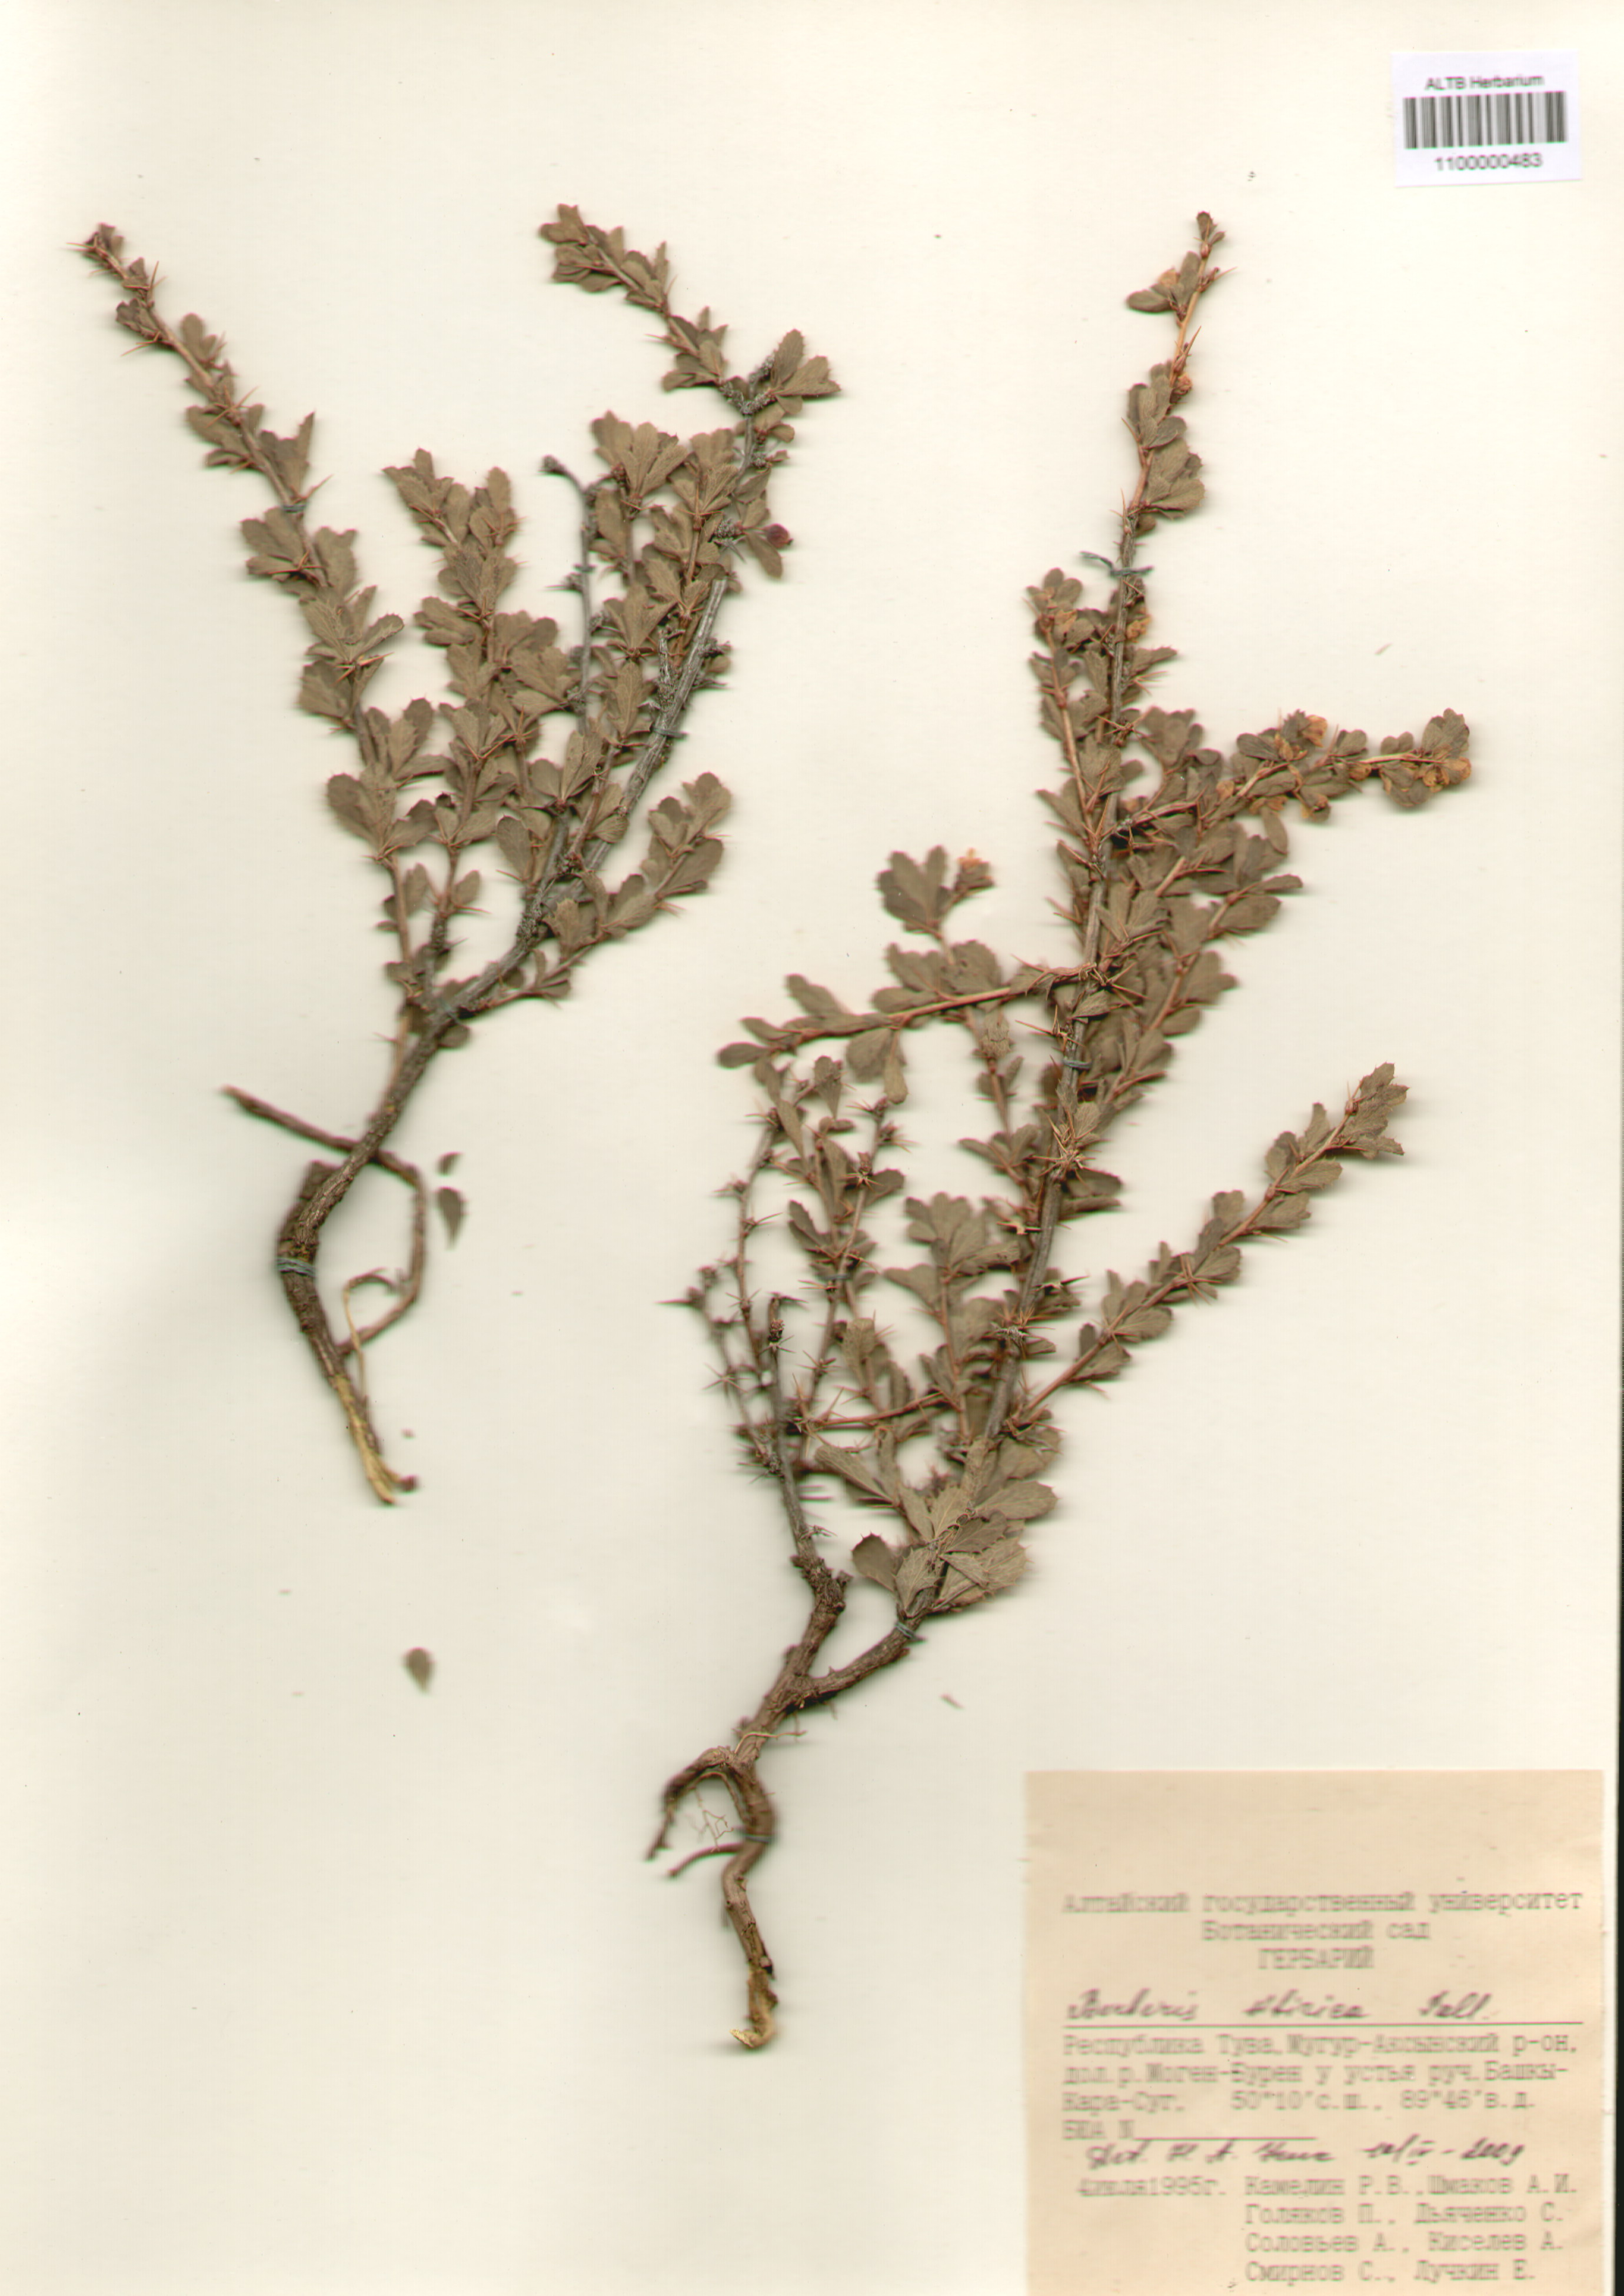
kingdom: Plantae
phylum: Tracheophyta
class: Magnoliopsida
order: Ranunculales
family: Berberidaceae
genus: Berberis
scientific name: Berberis sibirica
